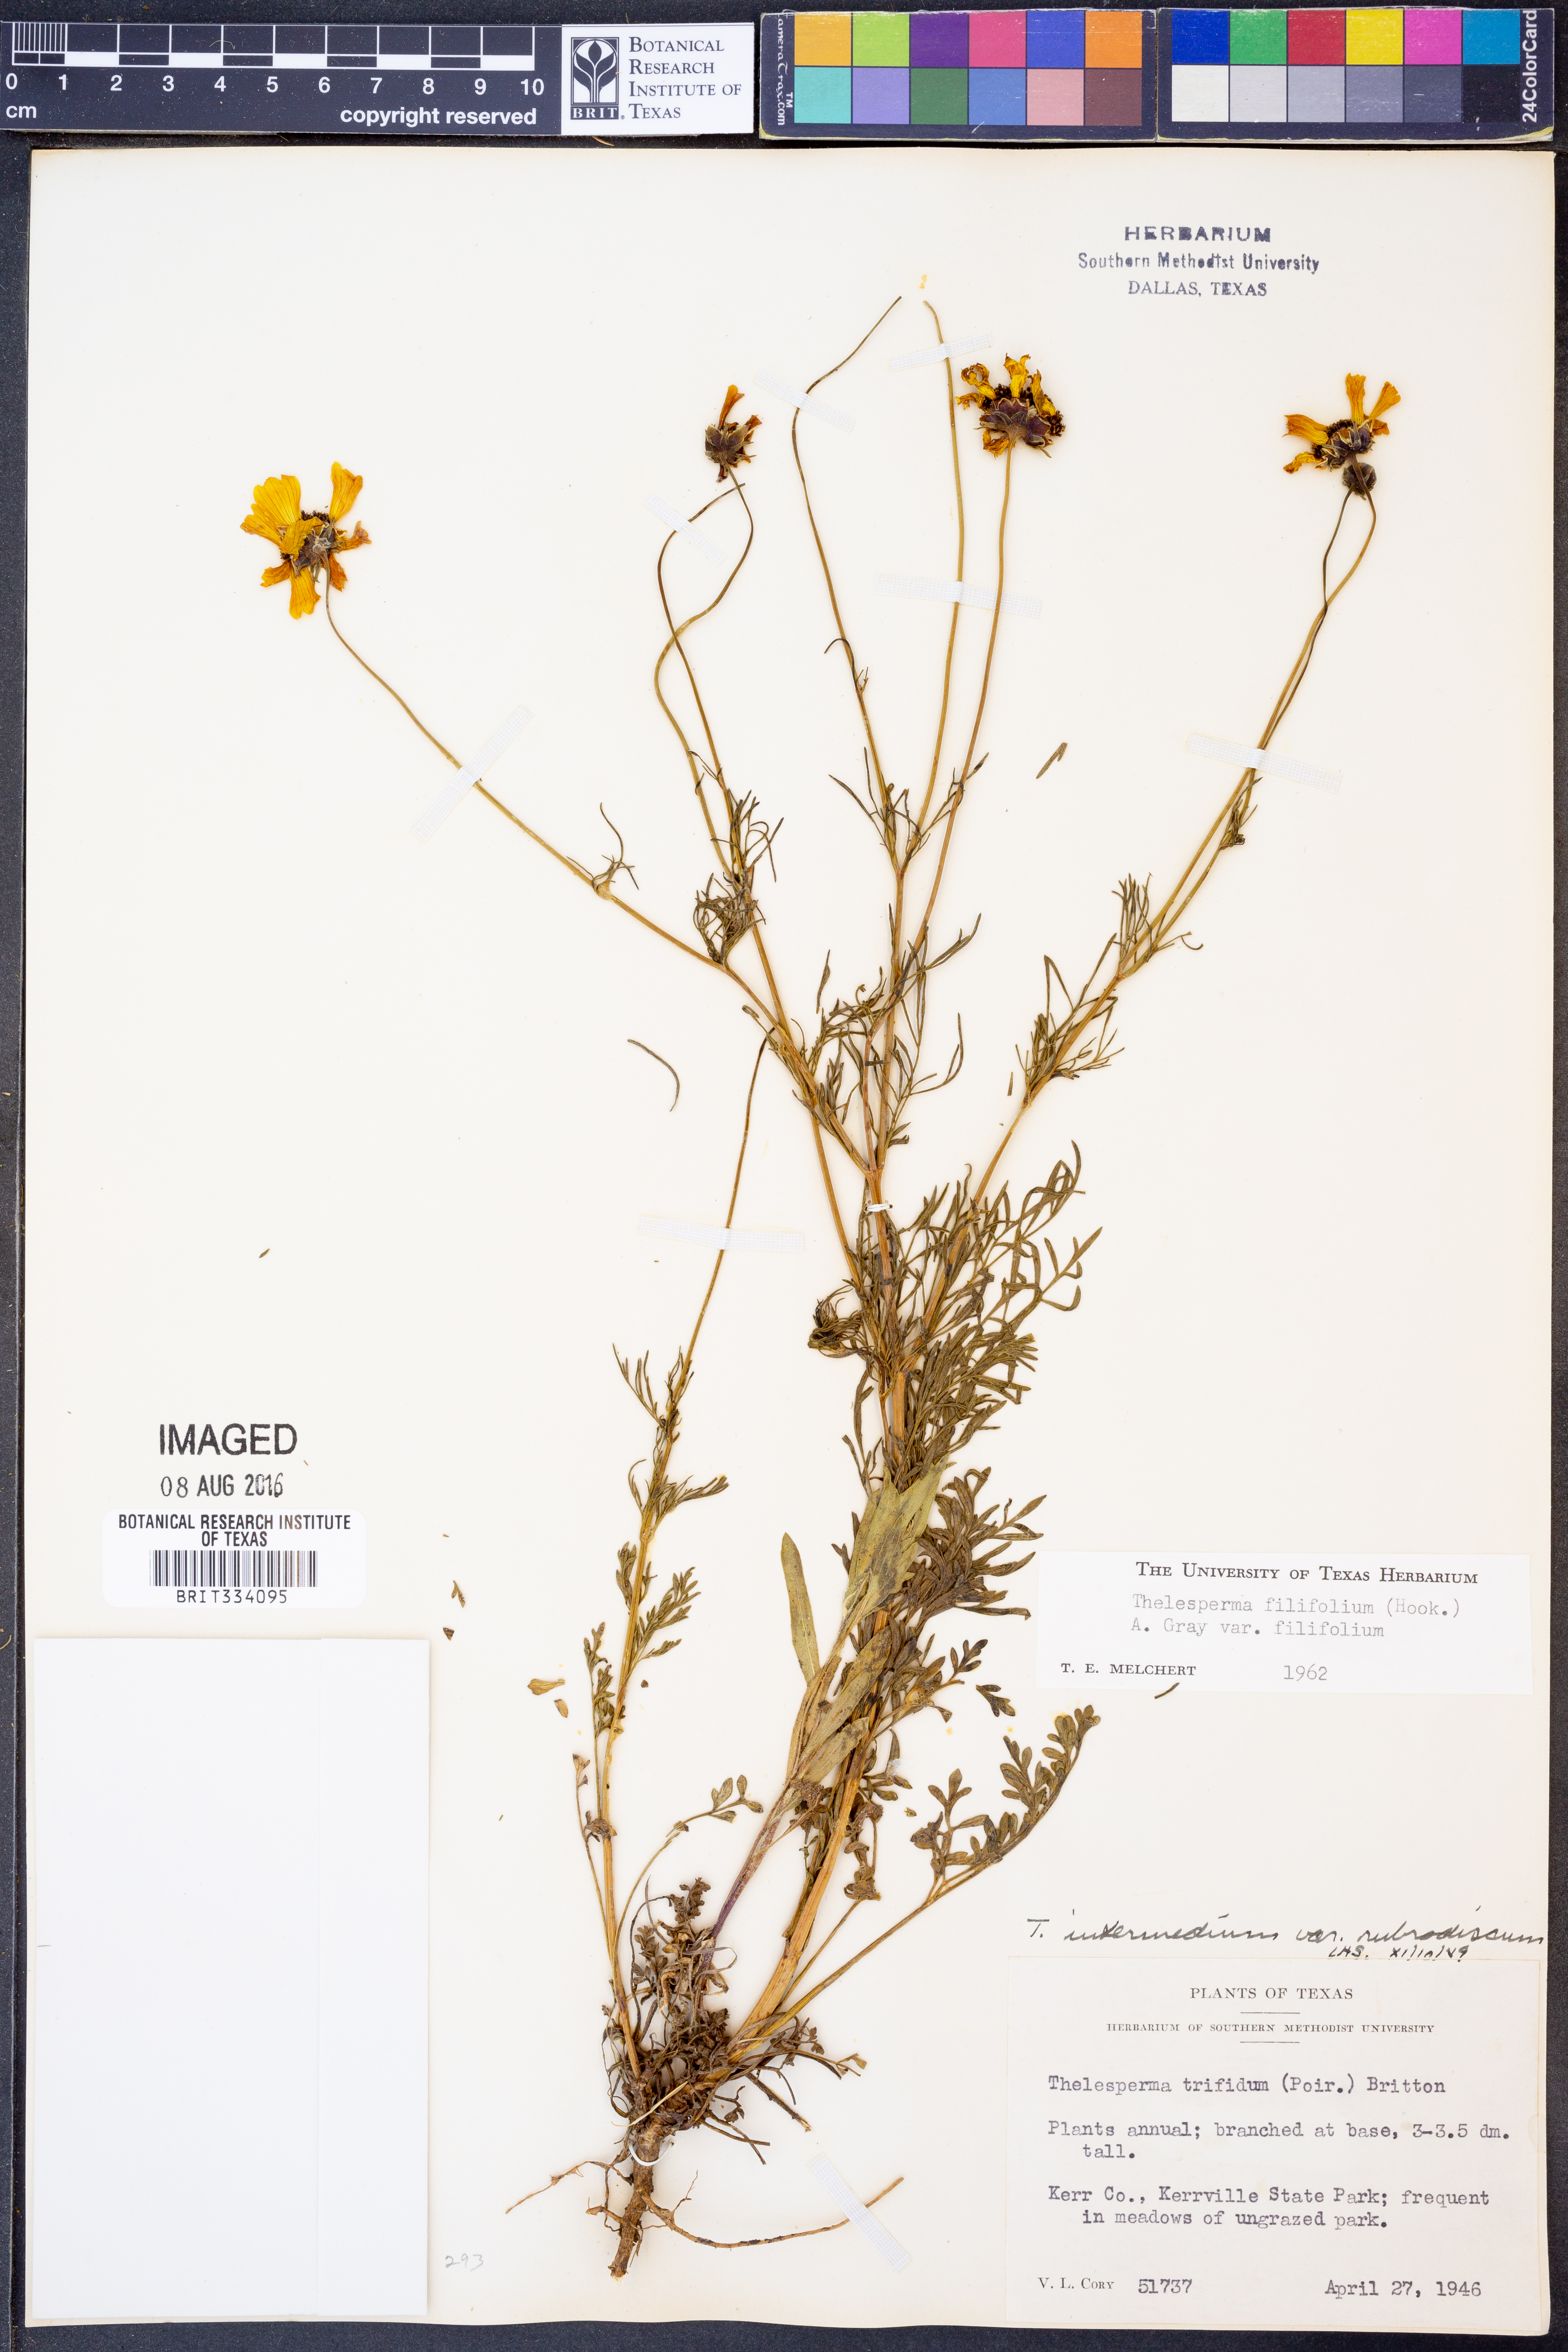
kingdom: Plantae
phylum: Tracheophyta
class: Magnoliopsida
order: Asterales
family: Asteraceae
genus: Thelesperma
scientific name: Thelesperma filifolium
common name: Stiff greenthread
